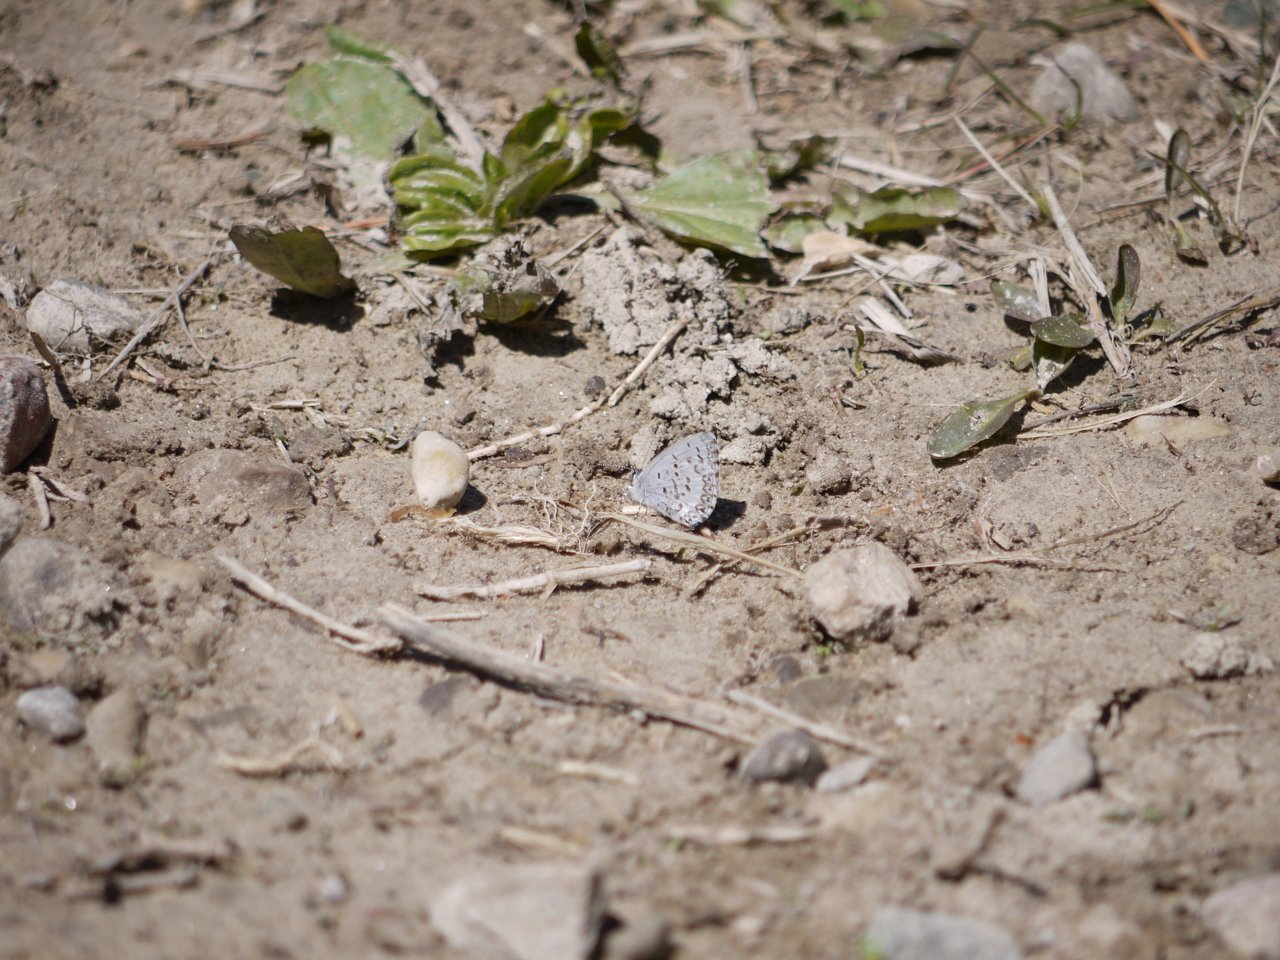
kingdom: Animalia
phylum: Arthropoda
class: Insecta
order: Lepidoptera
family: Lycaenidae
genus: Celastrina
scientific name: Celastrina lucia
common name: Northern Spring Azure
